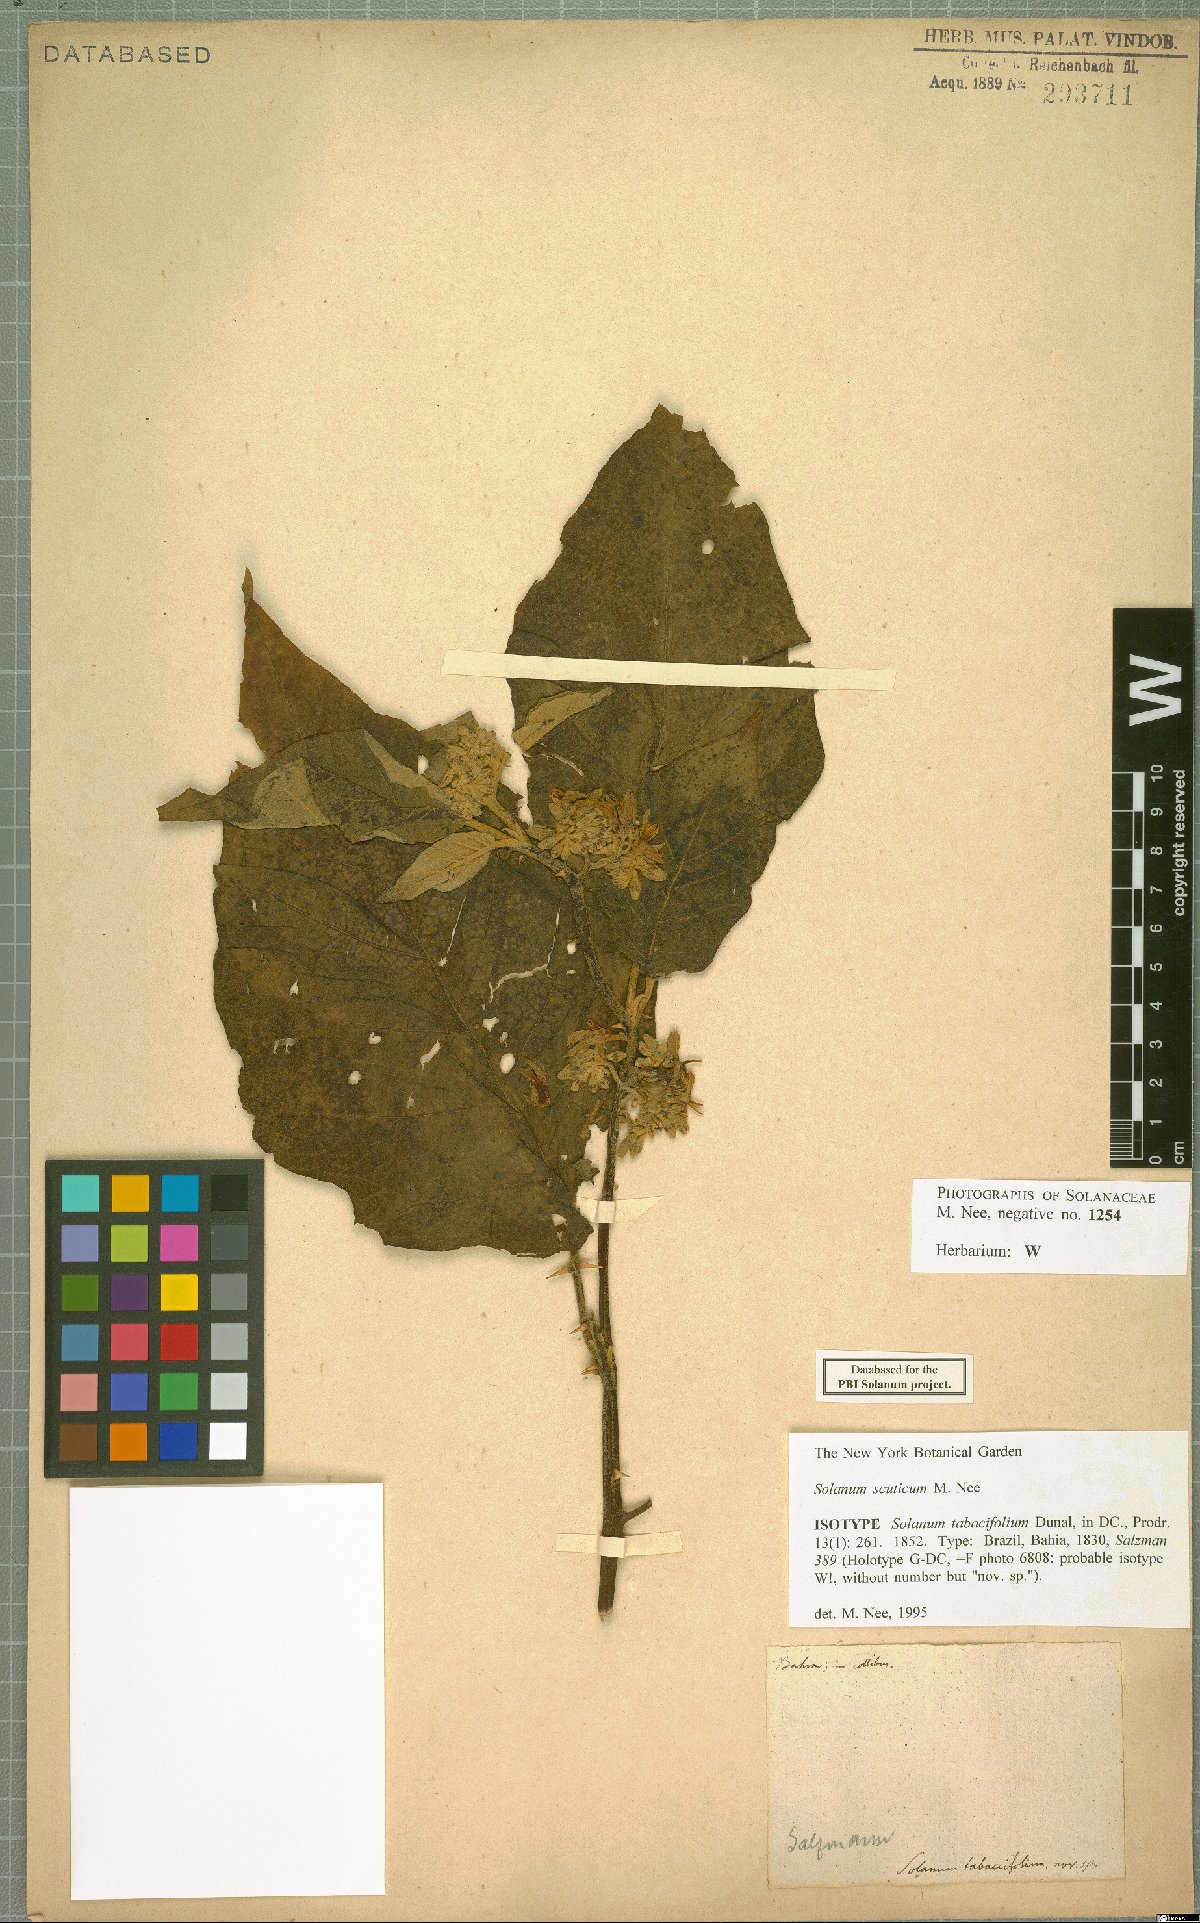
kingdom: Plantae
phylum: Tracheophyta
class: Magnoliopsida
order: Solanales
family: Solanaceae
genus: Solanum
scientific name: Solanum scuticum
